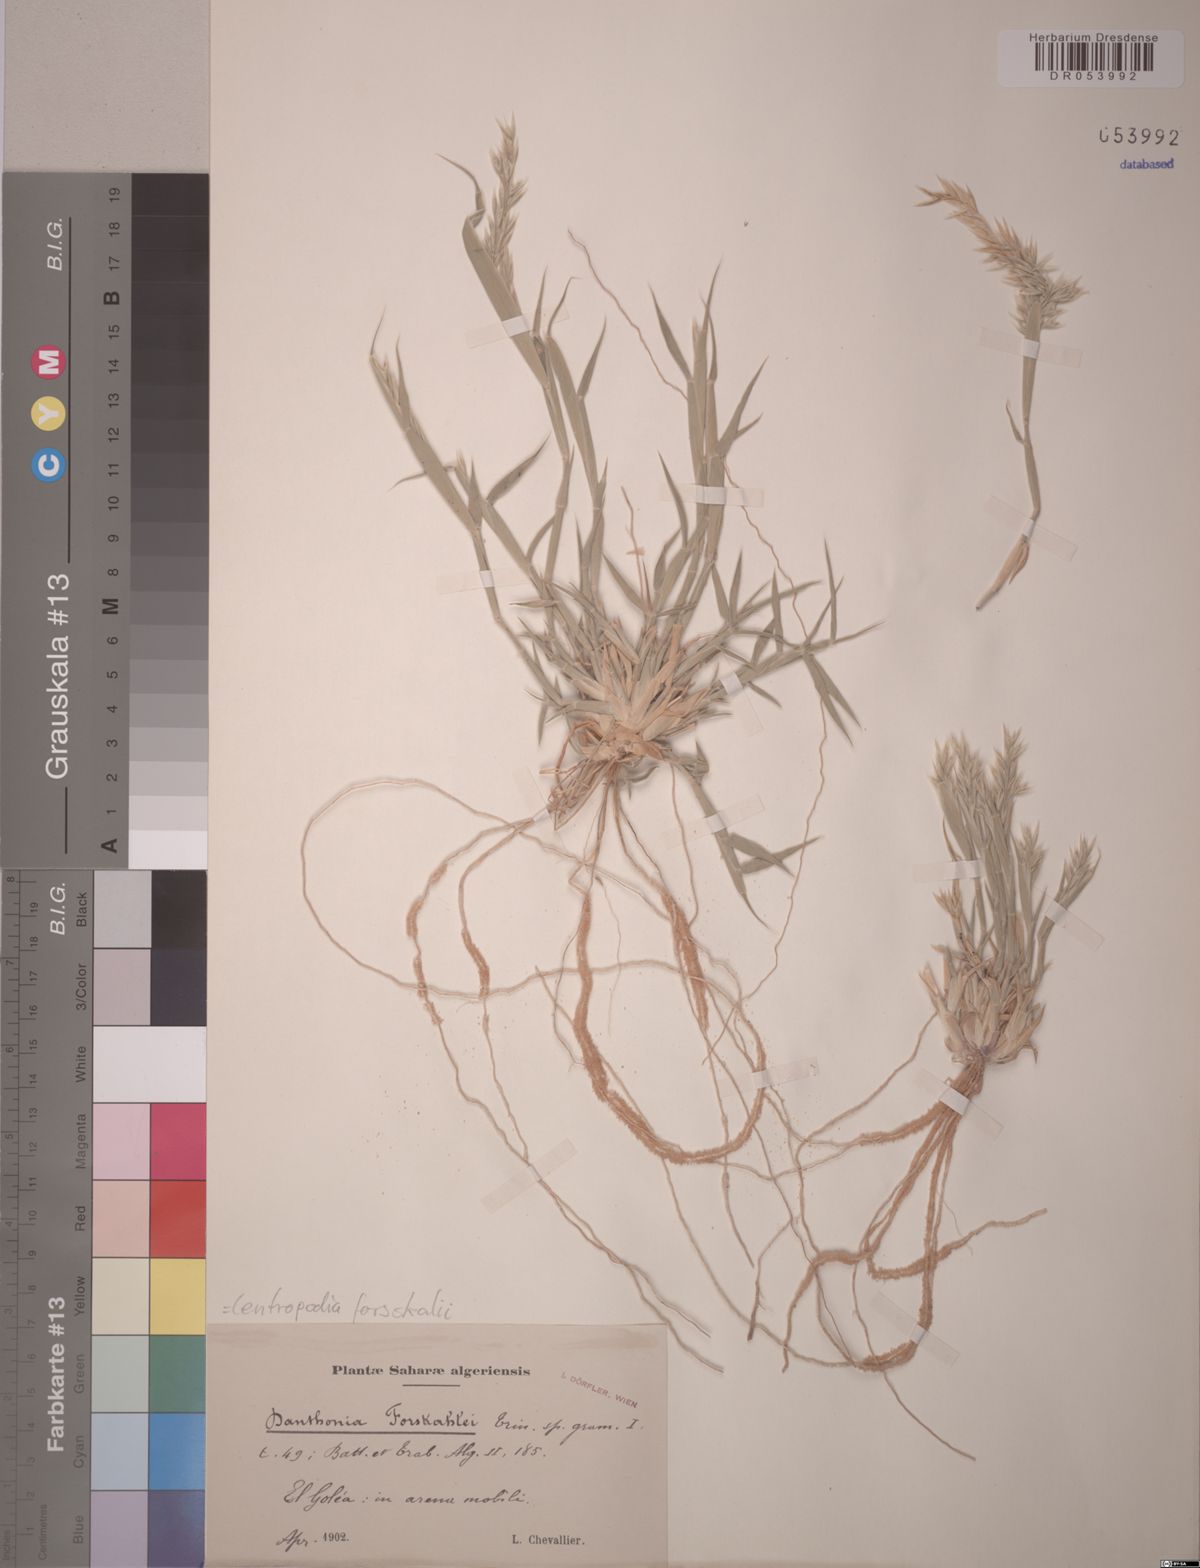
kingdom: Plantae
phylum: Tracheophyta
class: Liliopsida
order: Poales
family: Poaceae
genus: Centropodia
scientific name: Centropodia forsskalii
